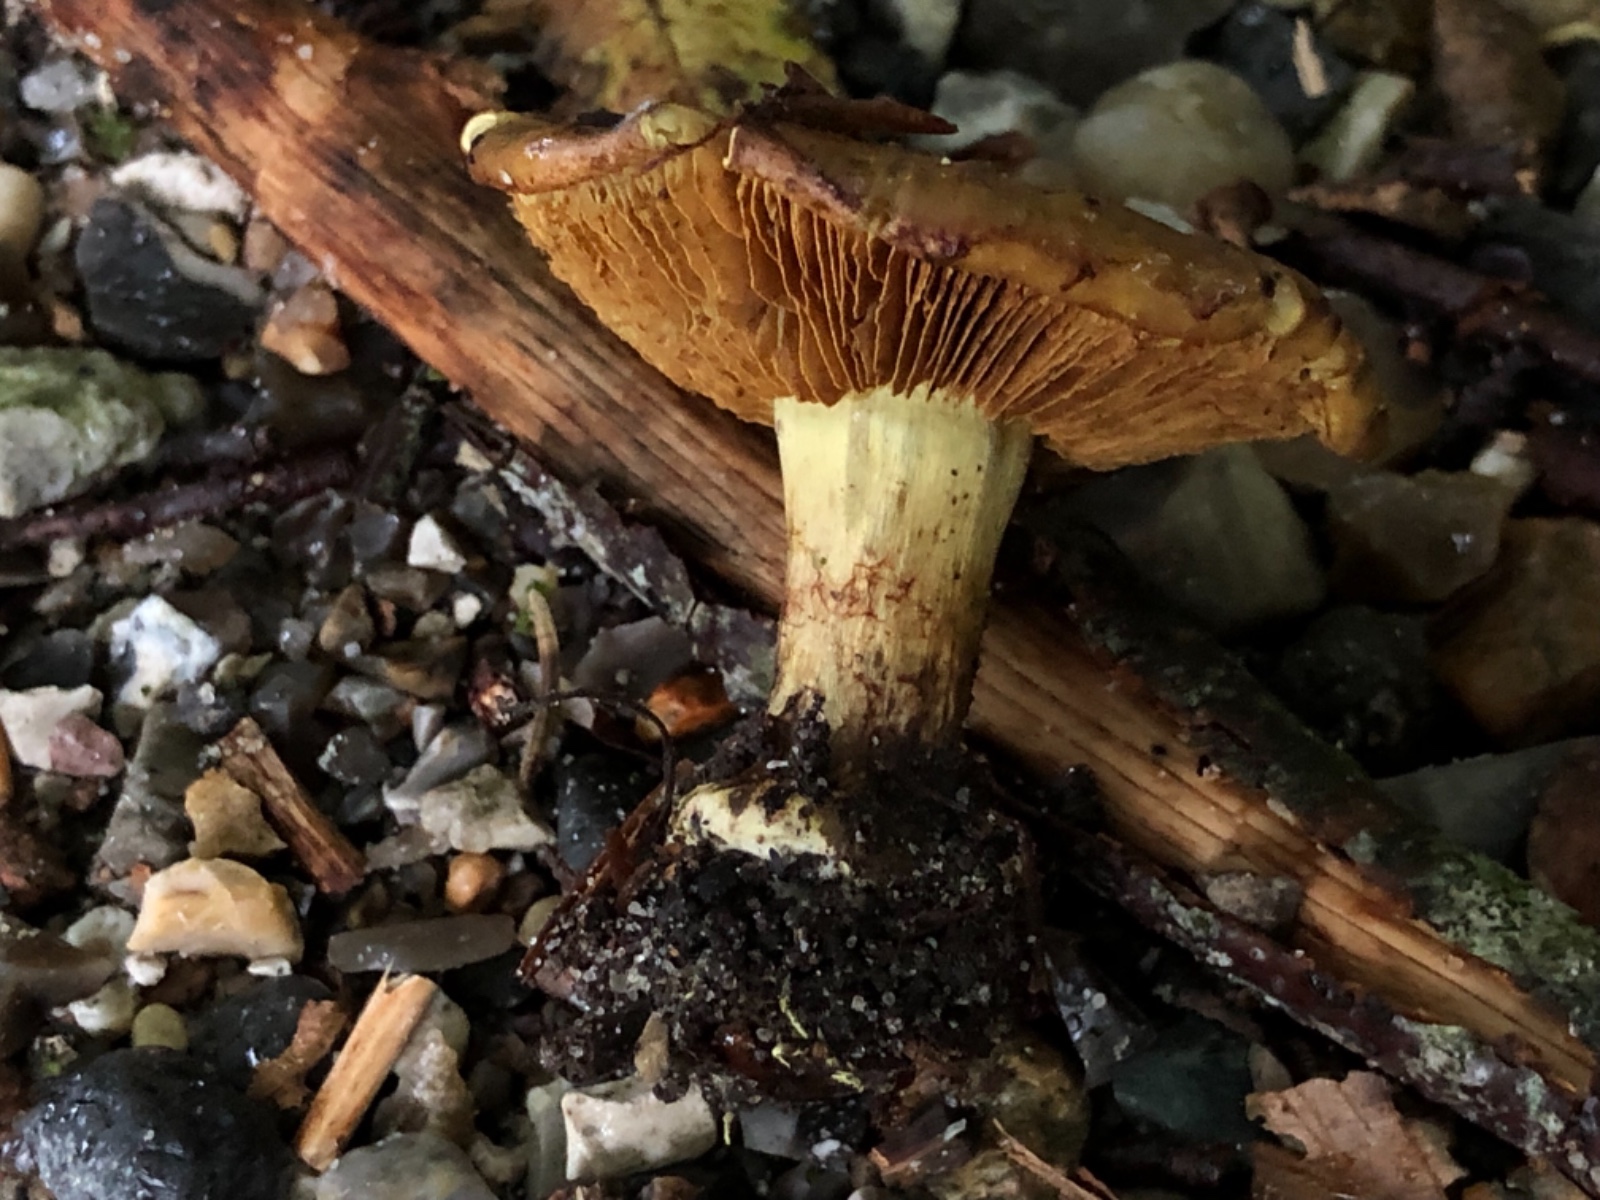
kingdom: Fungi
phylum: Basidiomycota
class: Agaricomycetes
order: Agaricales
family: Cortinariaceae
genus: Calonarius
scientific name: Calonarius citrinus
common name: citrongul slørhat
